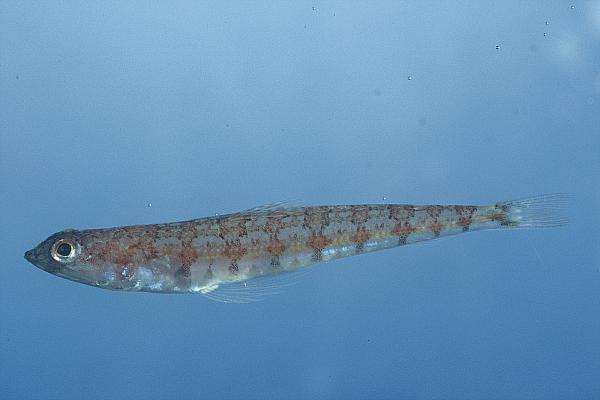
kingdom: Animalia
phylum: Chordata
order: Aulopiformes
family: Synodontidae
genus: Synodus
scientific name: Synodus indicus
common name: Indian lizardfish
